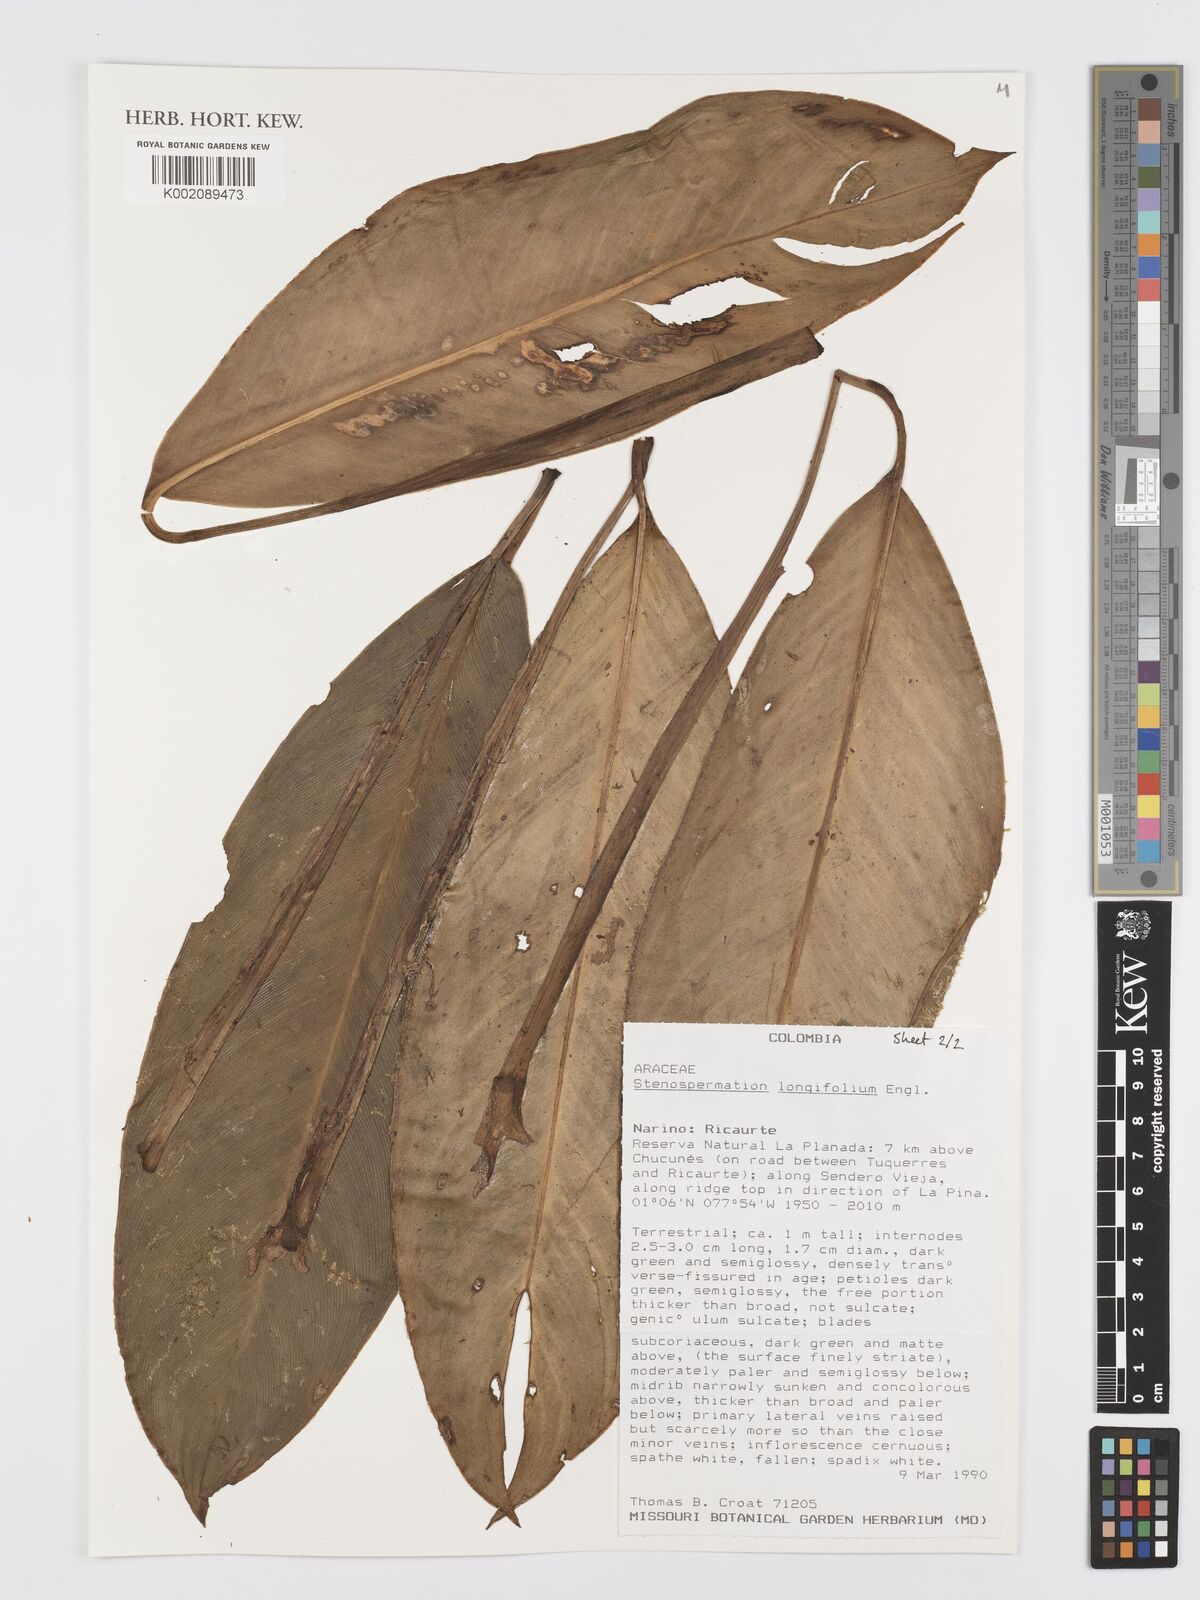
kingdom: Plantae
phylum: Tracheophyta
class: Liliopsida
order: Alismatales
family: Araceae
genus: Stenospermation
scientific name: Stenospermation longifolium
